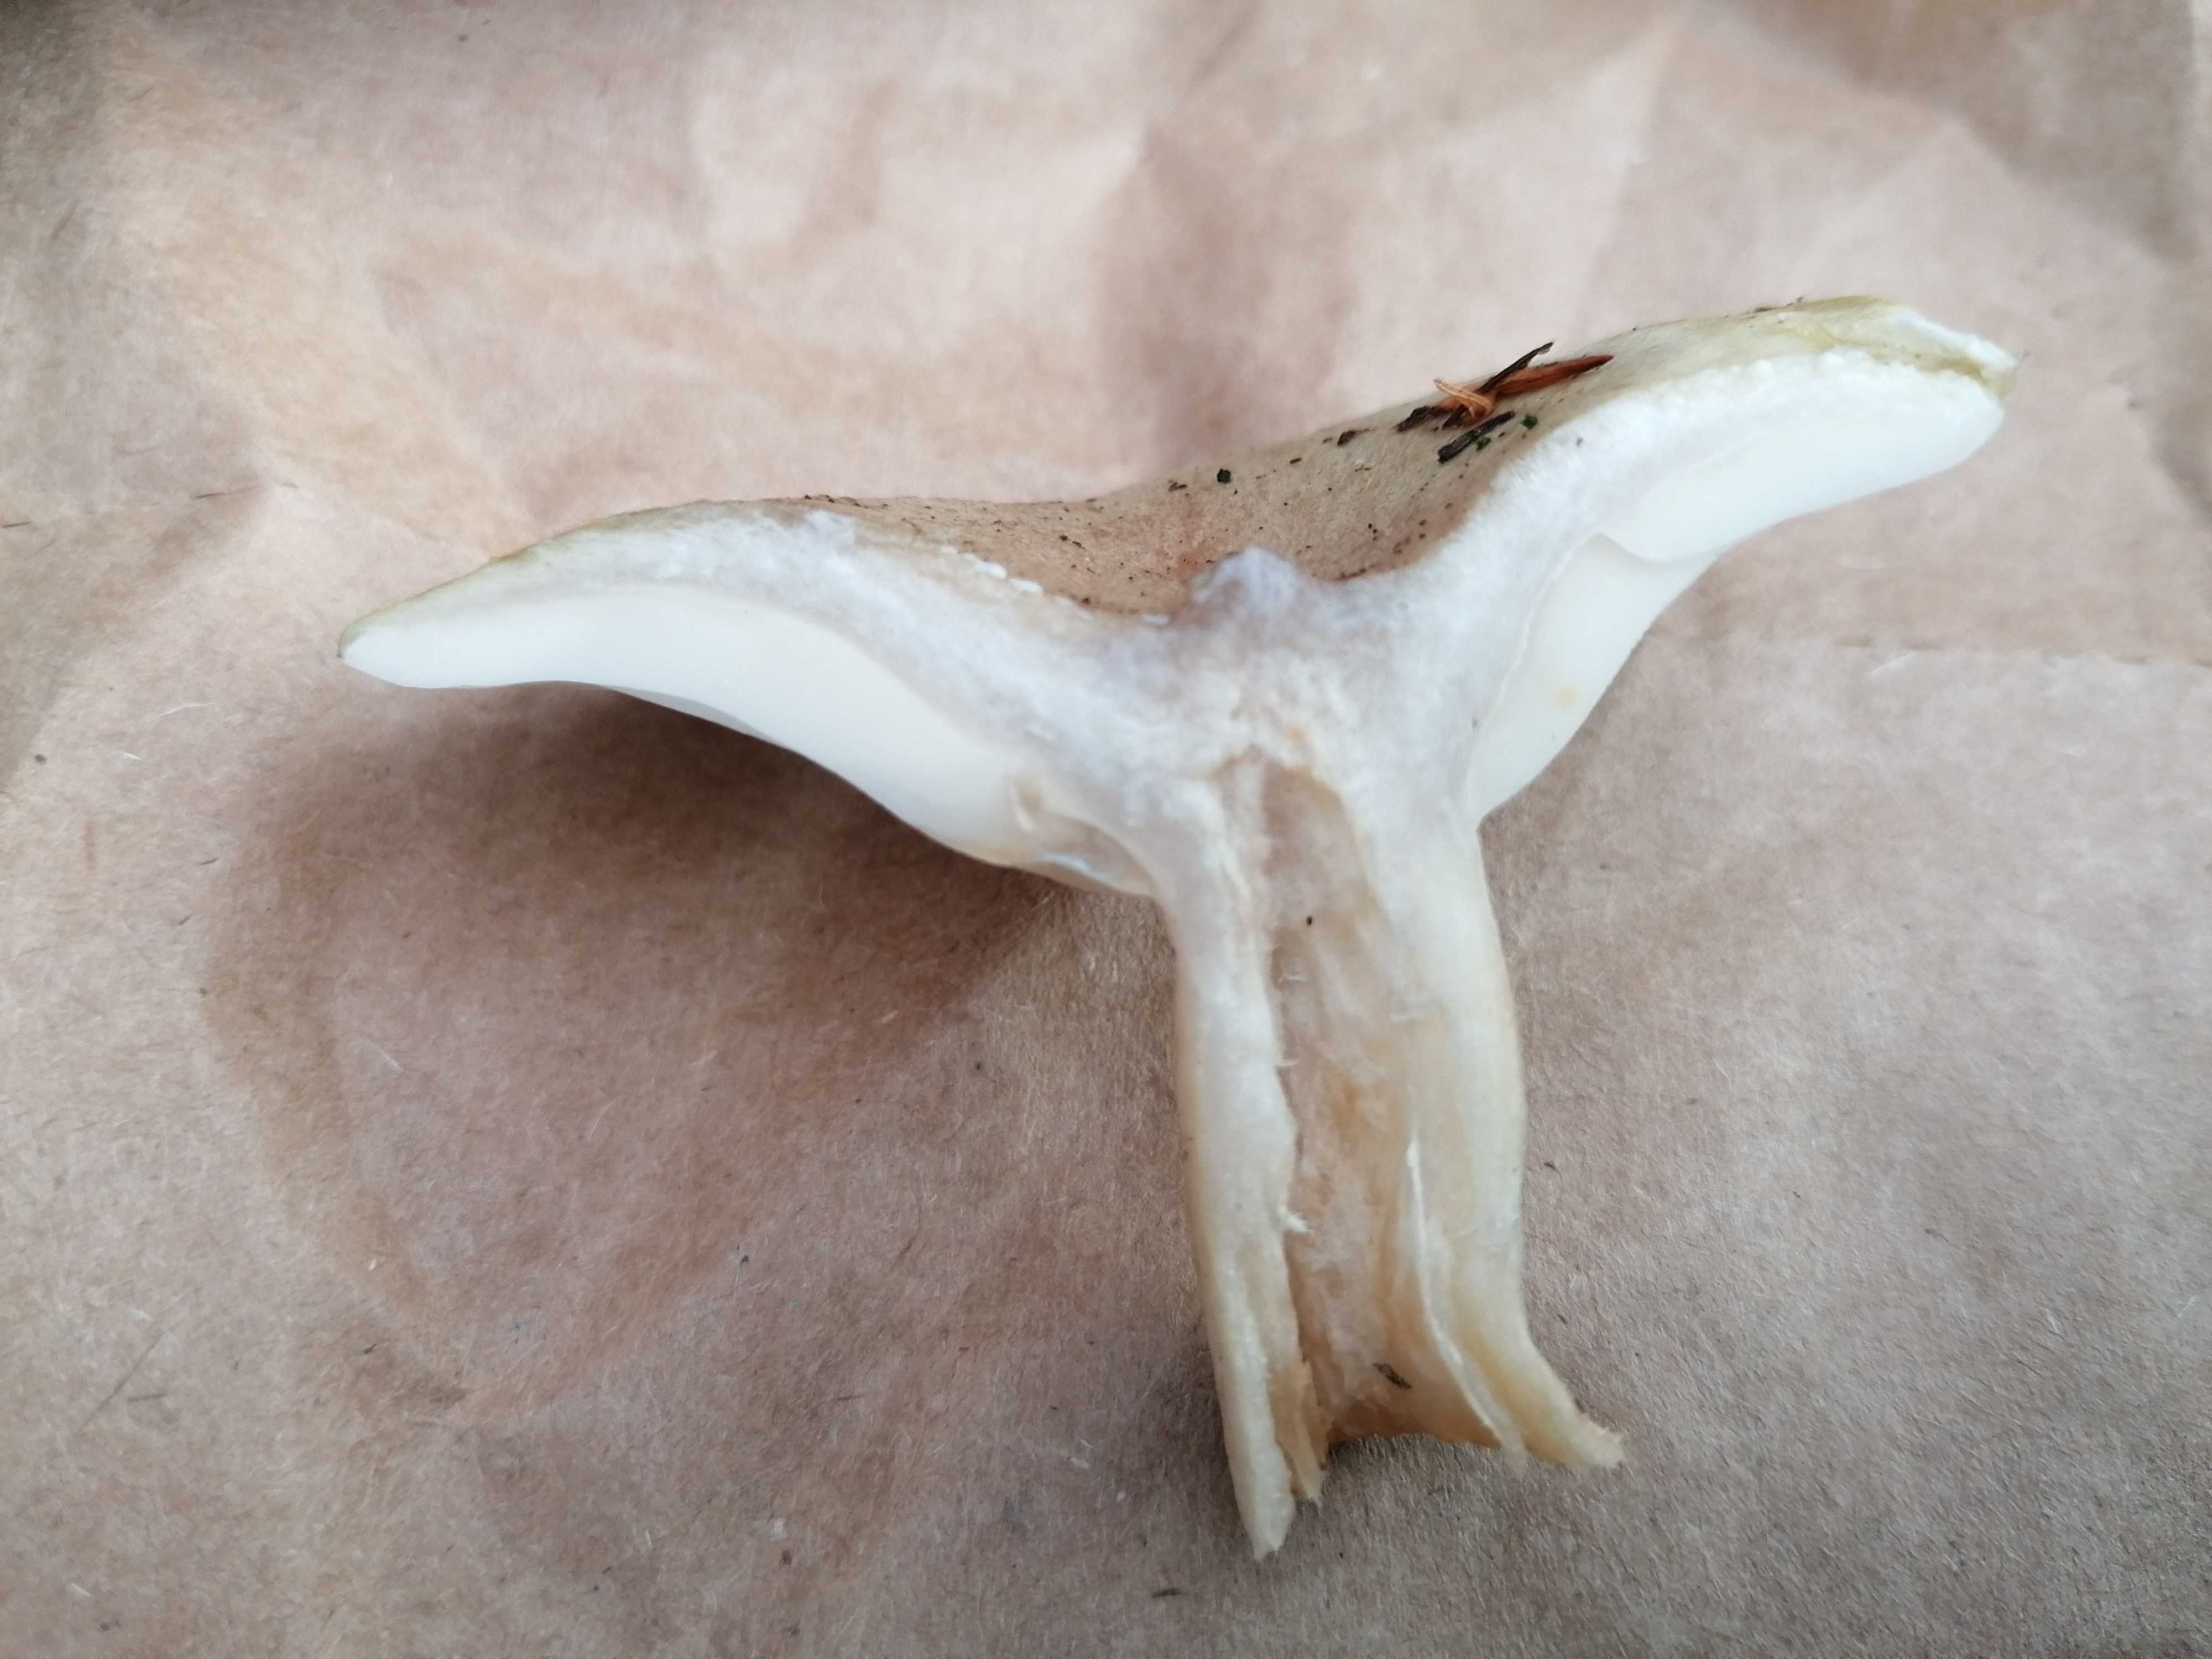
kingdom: Fungi
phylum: Basidiomycota
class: Agaricomycetes
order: Russulales
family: Russulaceae
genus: Lactarius
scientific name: Lactarius blennius
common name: dråbeplettet mælkehat
